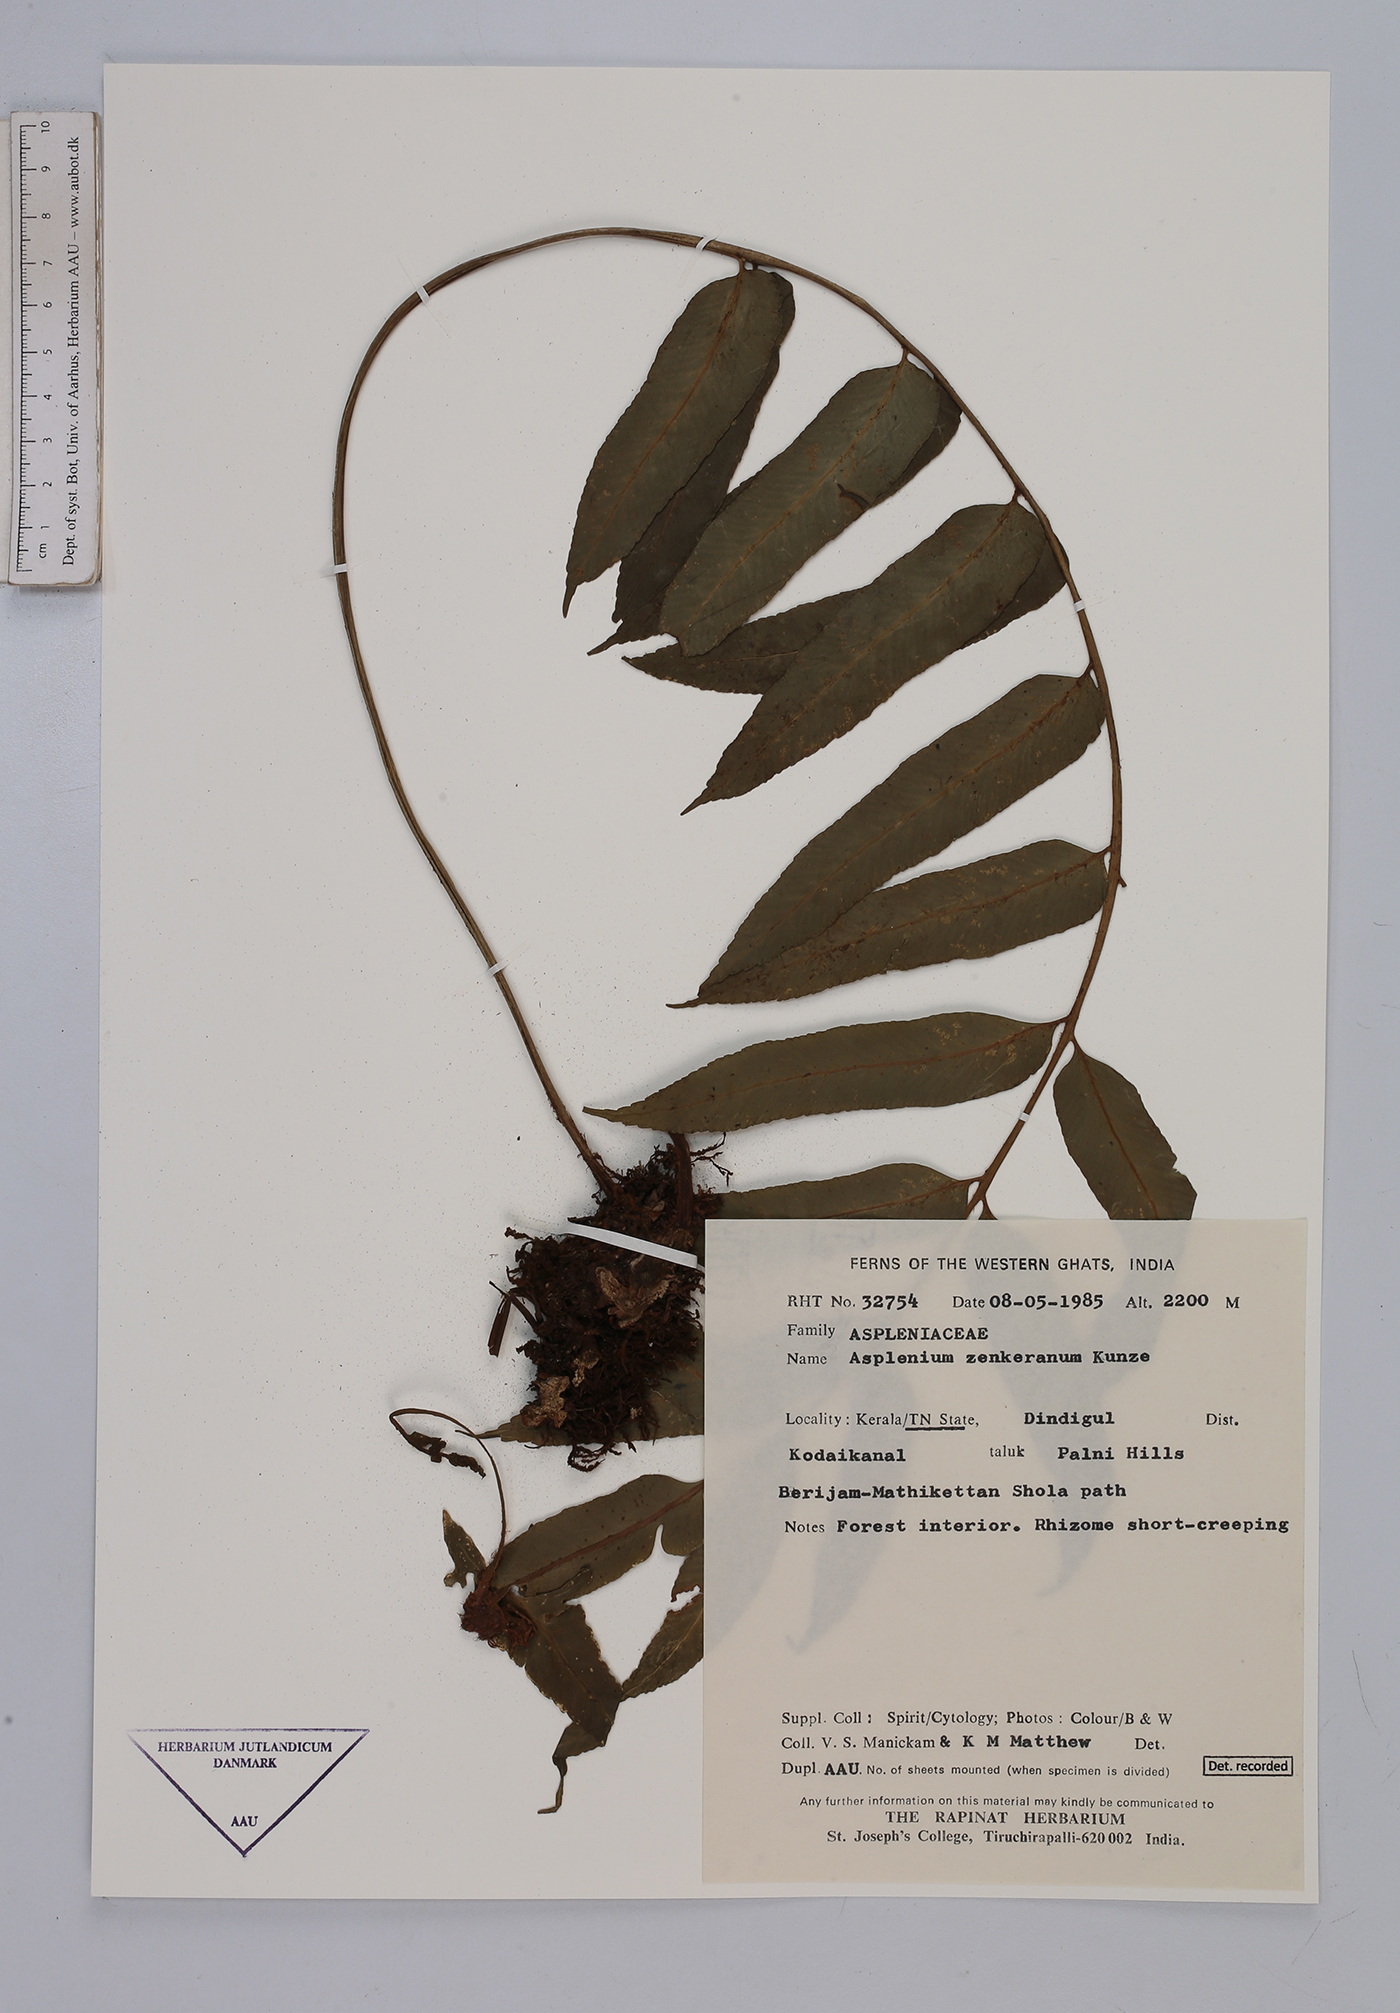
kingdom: Plantae
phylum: Tracheophyta
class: Polypodiopsida
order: Polypodiales
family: Aspleniaceae
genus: Asplenium
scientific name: Asplenium zenkerianum
